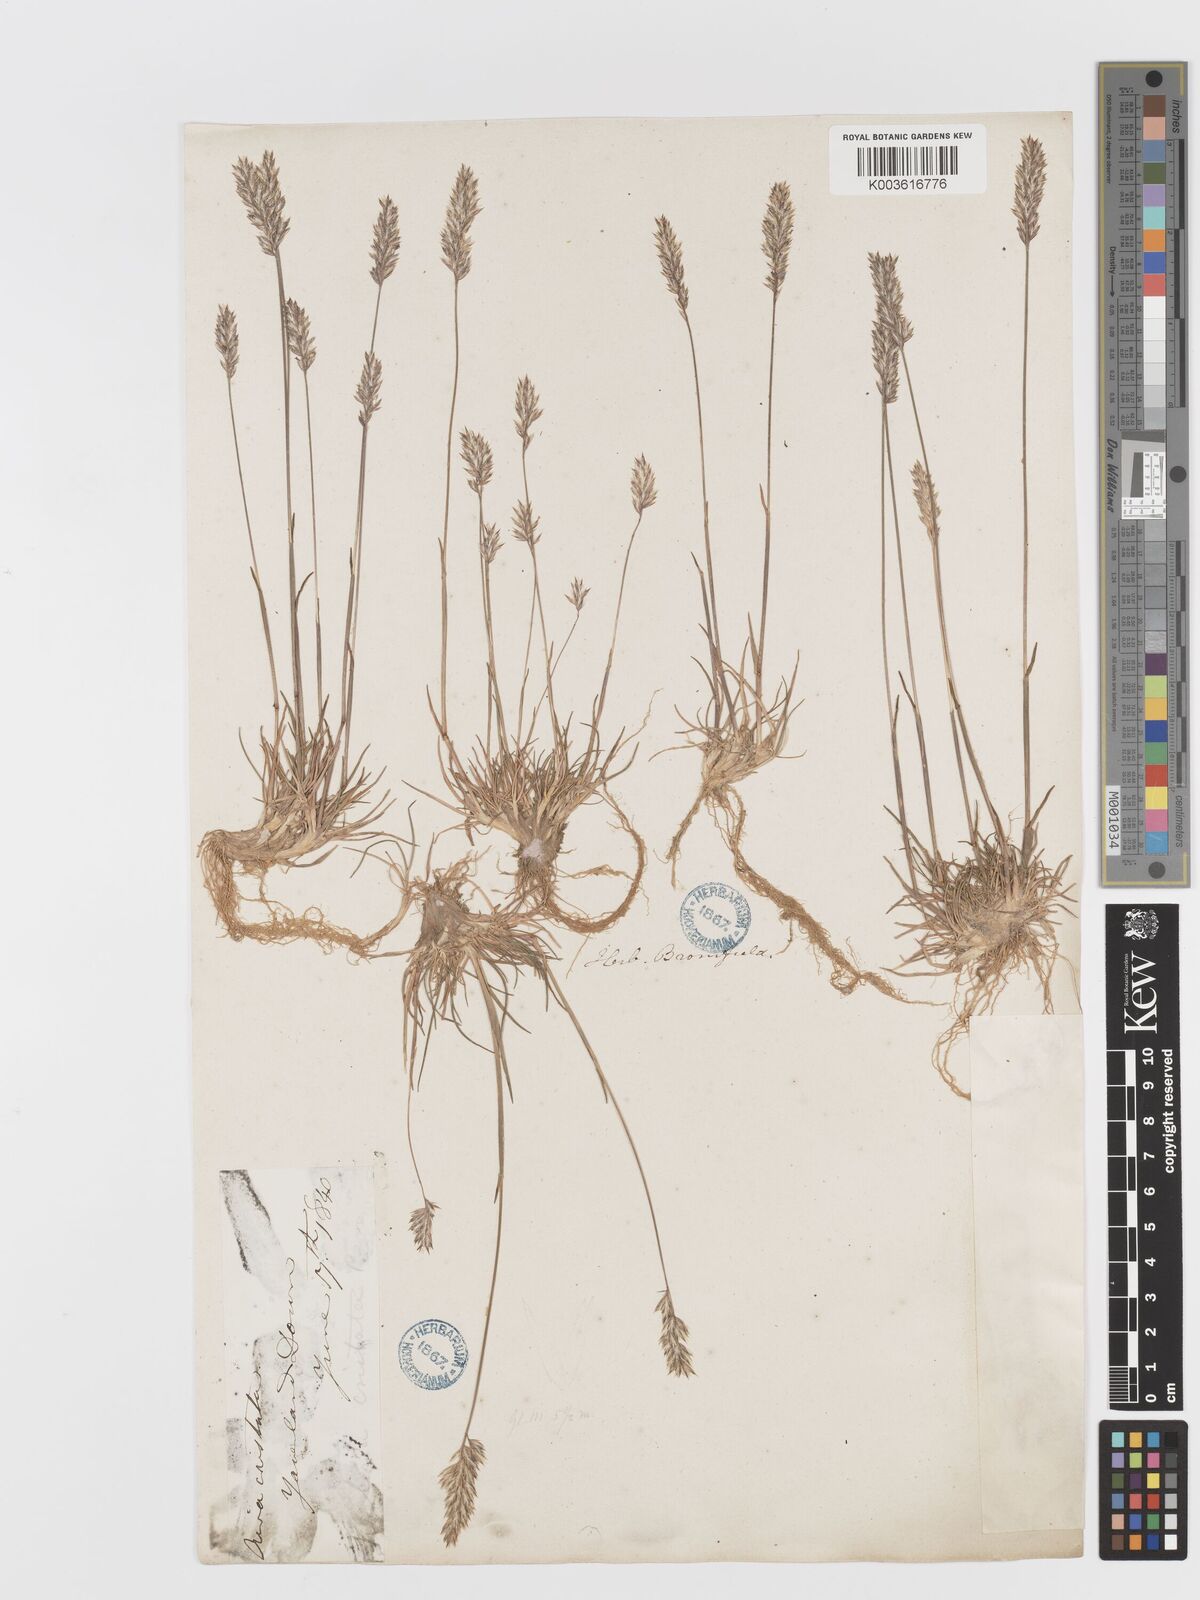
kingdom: Plantae
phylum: Tracheophyta
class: Liliopsida
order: Poales
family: Poaceae
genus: Koeleria
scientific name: Koeleria macrantha
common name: Crested hair-grass
